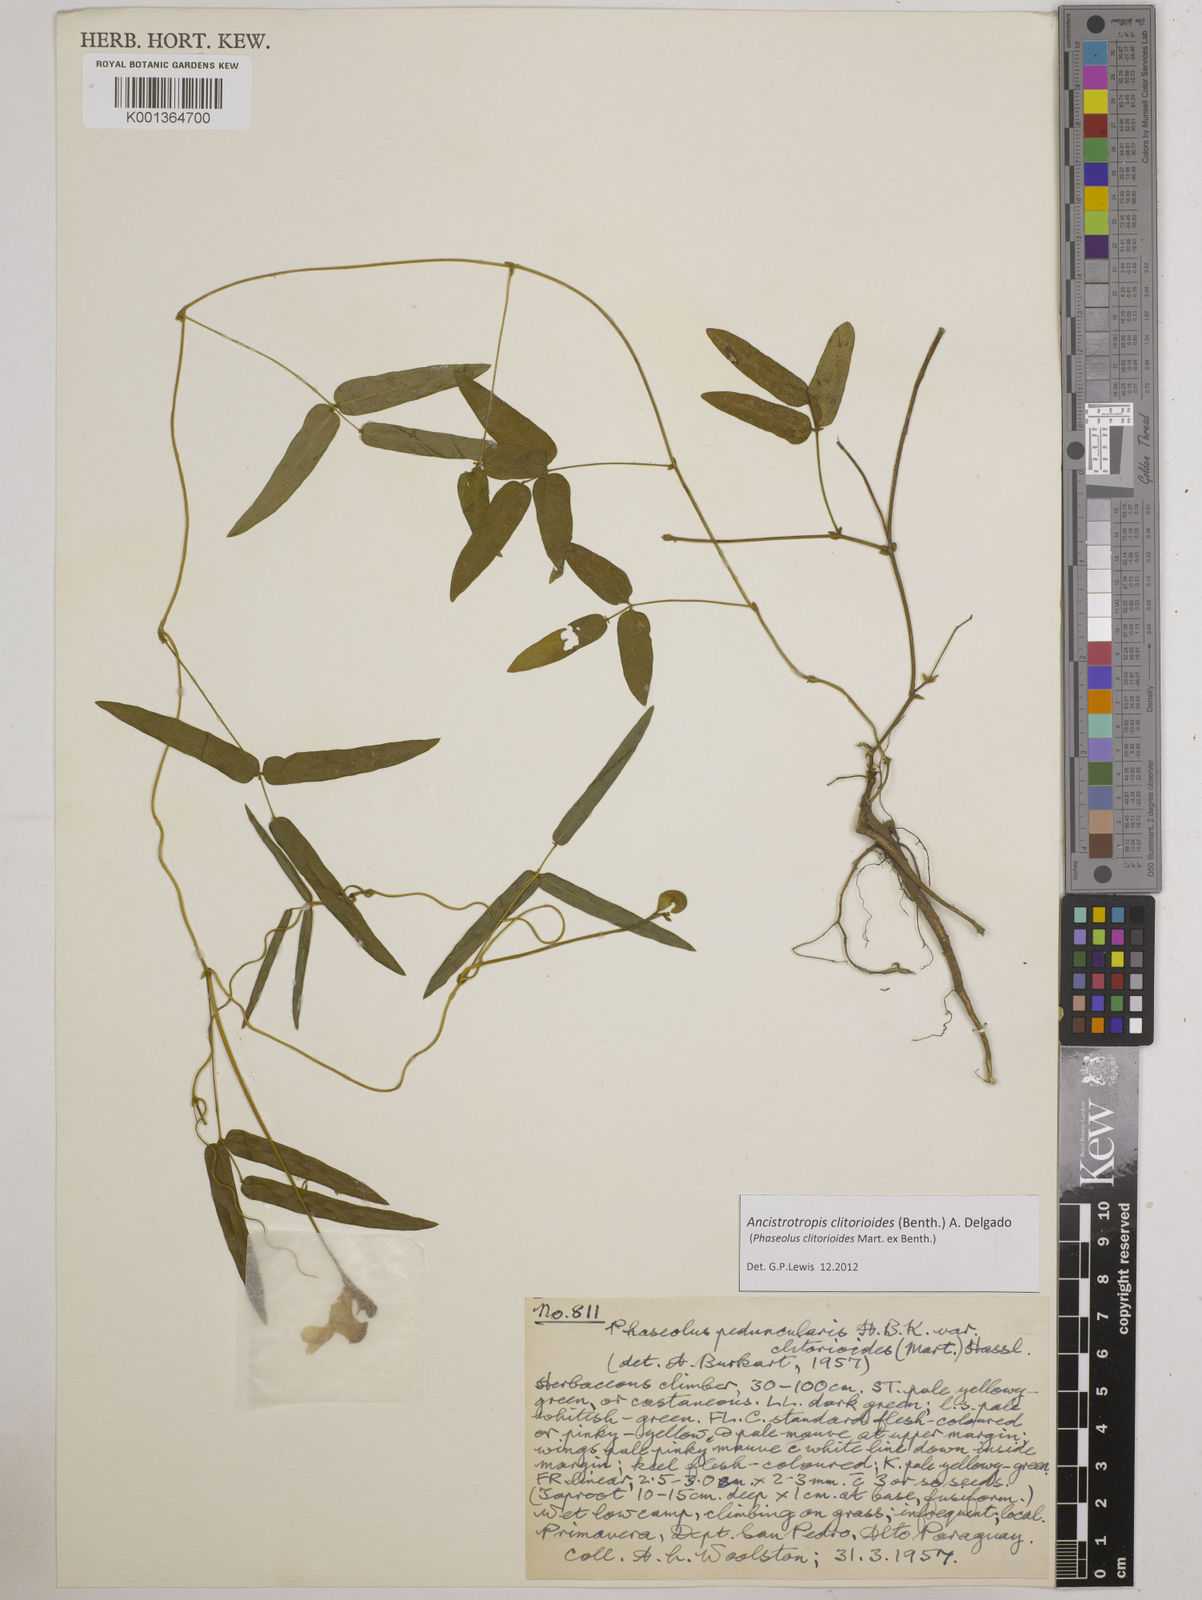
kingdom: Plantae
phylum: Tracheophyta
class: Magnoliopsida
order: Fabales
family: Fabaceae
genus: Ancistrotropis
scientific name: Ancistrotropis clitorioides
